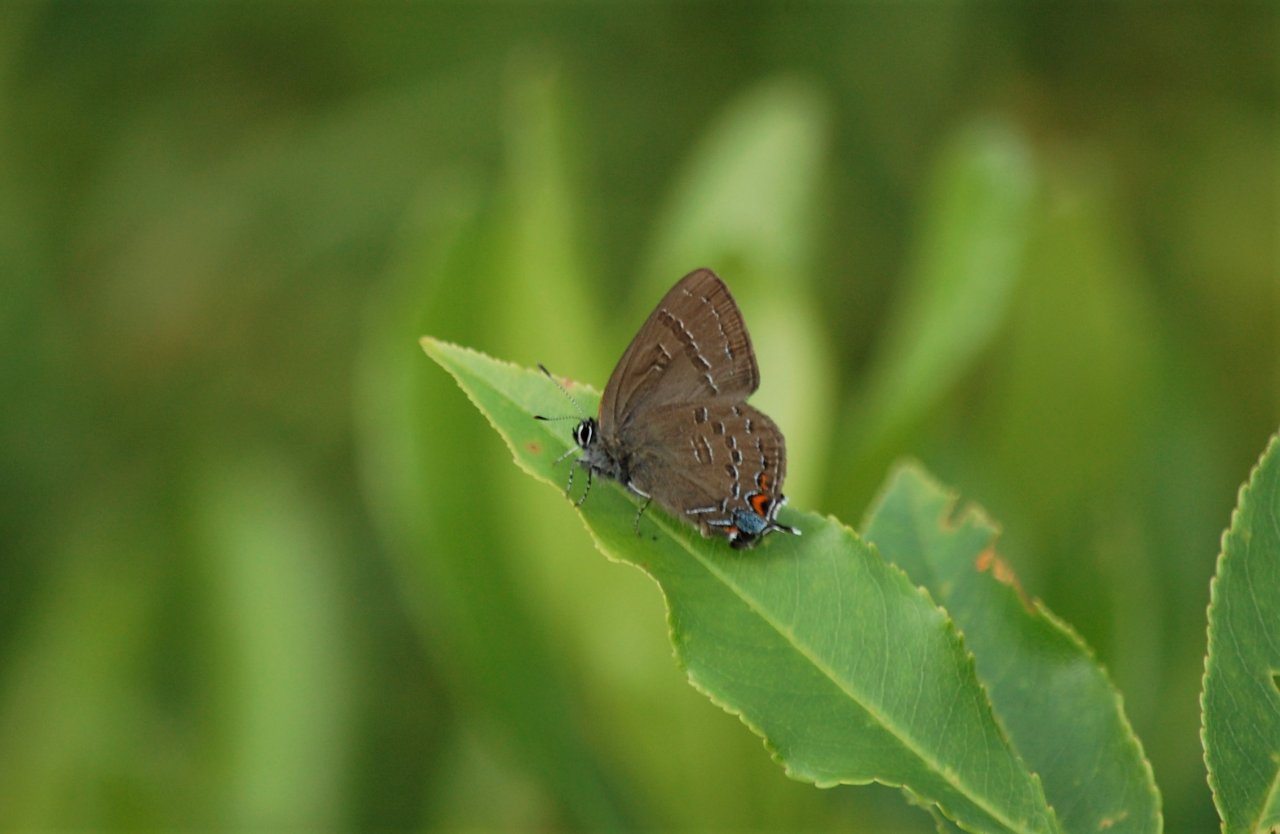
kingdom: Animalia
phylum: Arthropoda
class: Insecta
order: Lepidoptera
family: Lycaenidae
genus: Satyrium
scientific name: Satyrium calanus
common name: Banded Hairstreak
